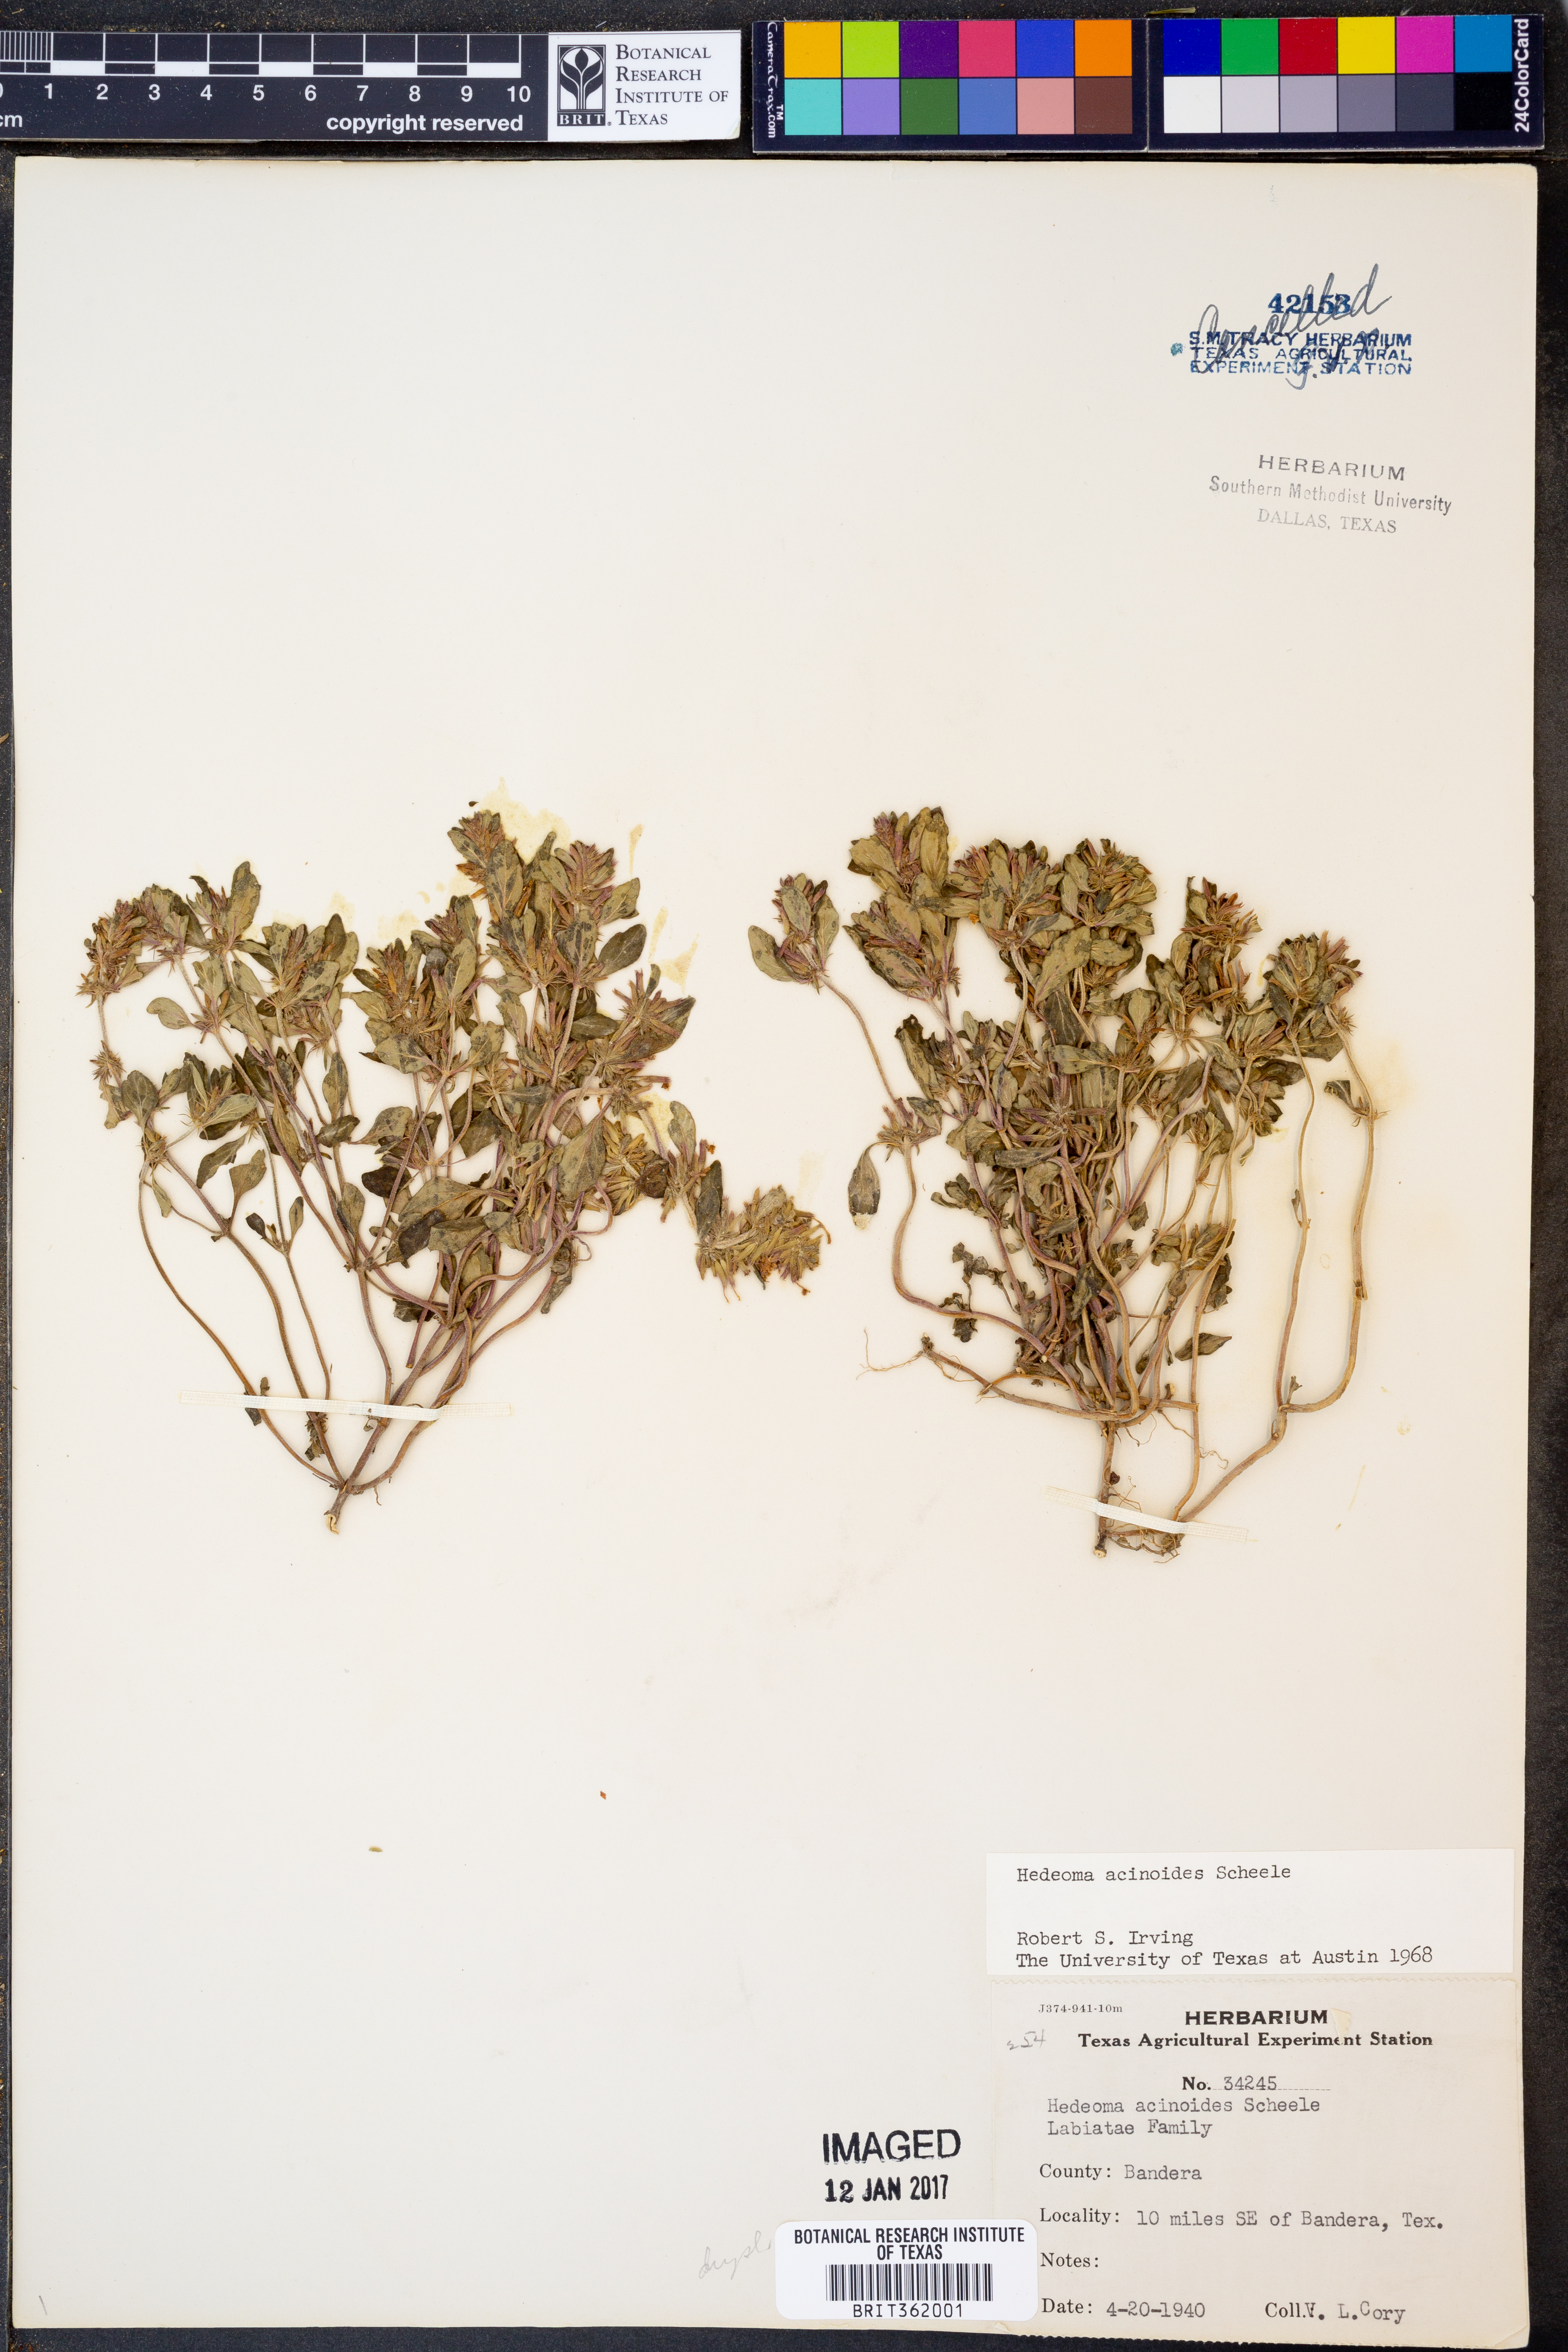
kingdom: Plantae
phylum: Tracheophyta
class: Magnoliopsida
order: Lamiales
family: Lamiaceae
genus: Hedeoma
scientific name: Hedeoma acinoides
